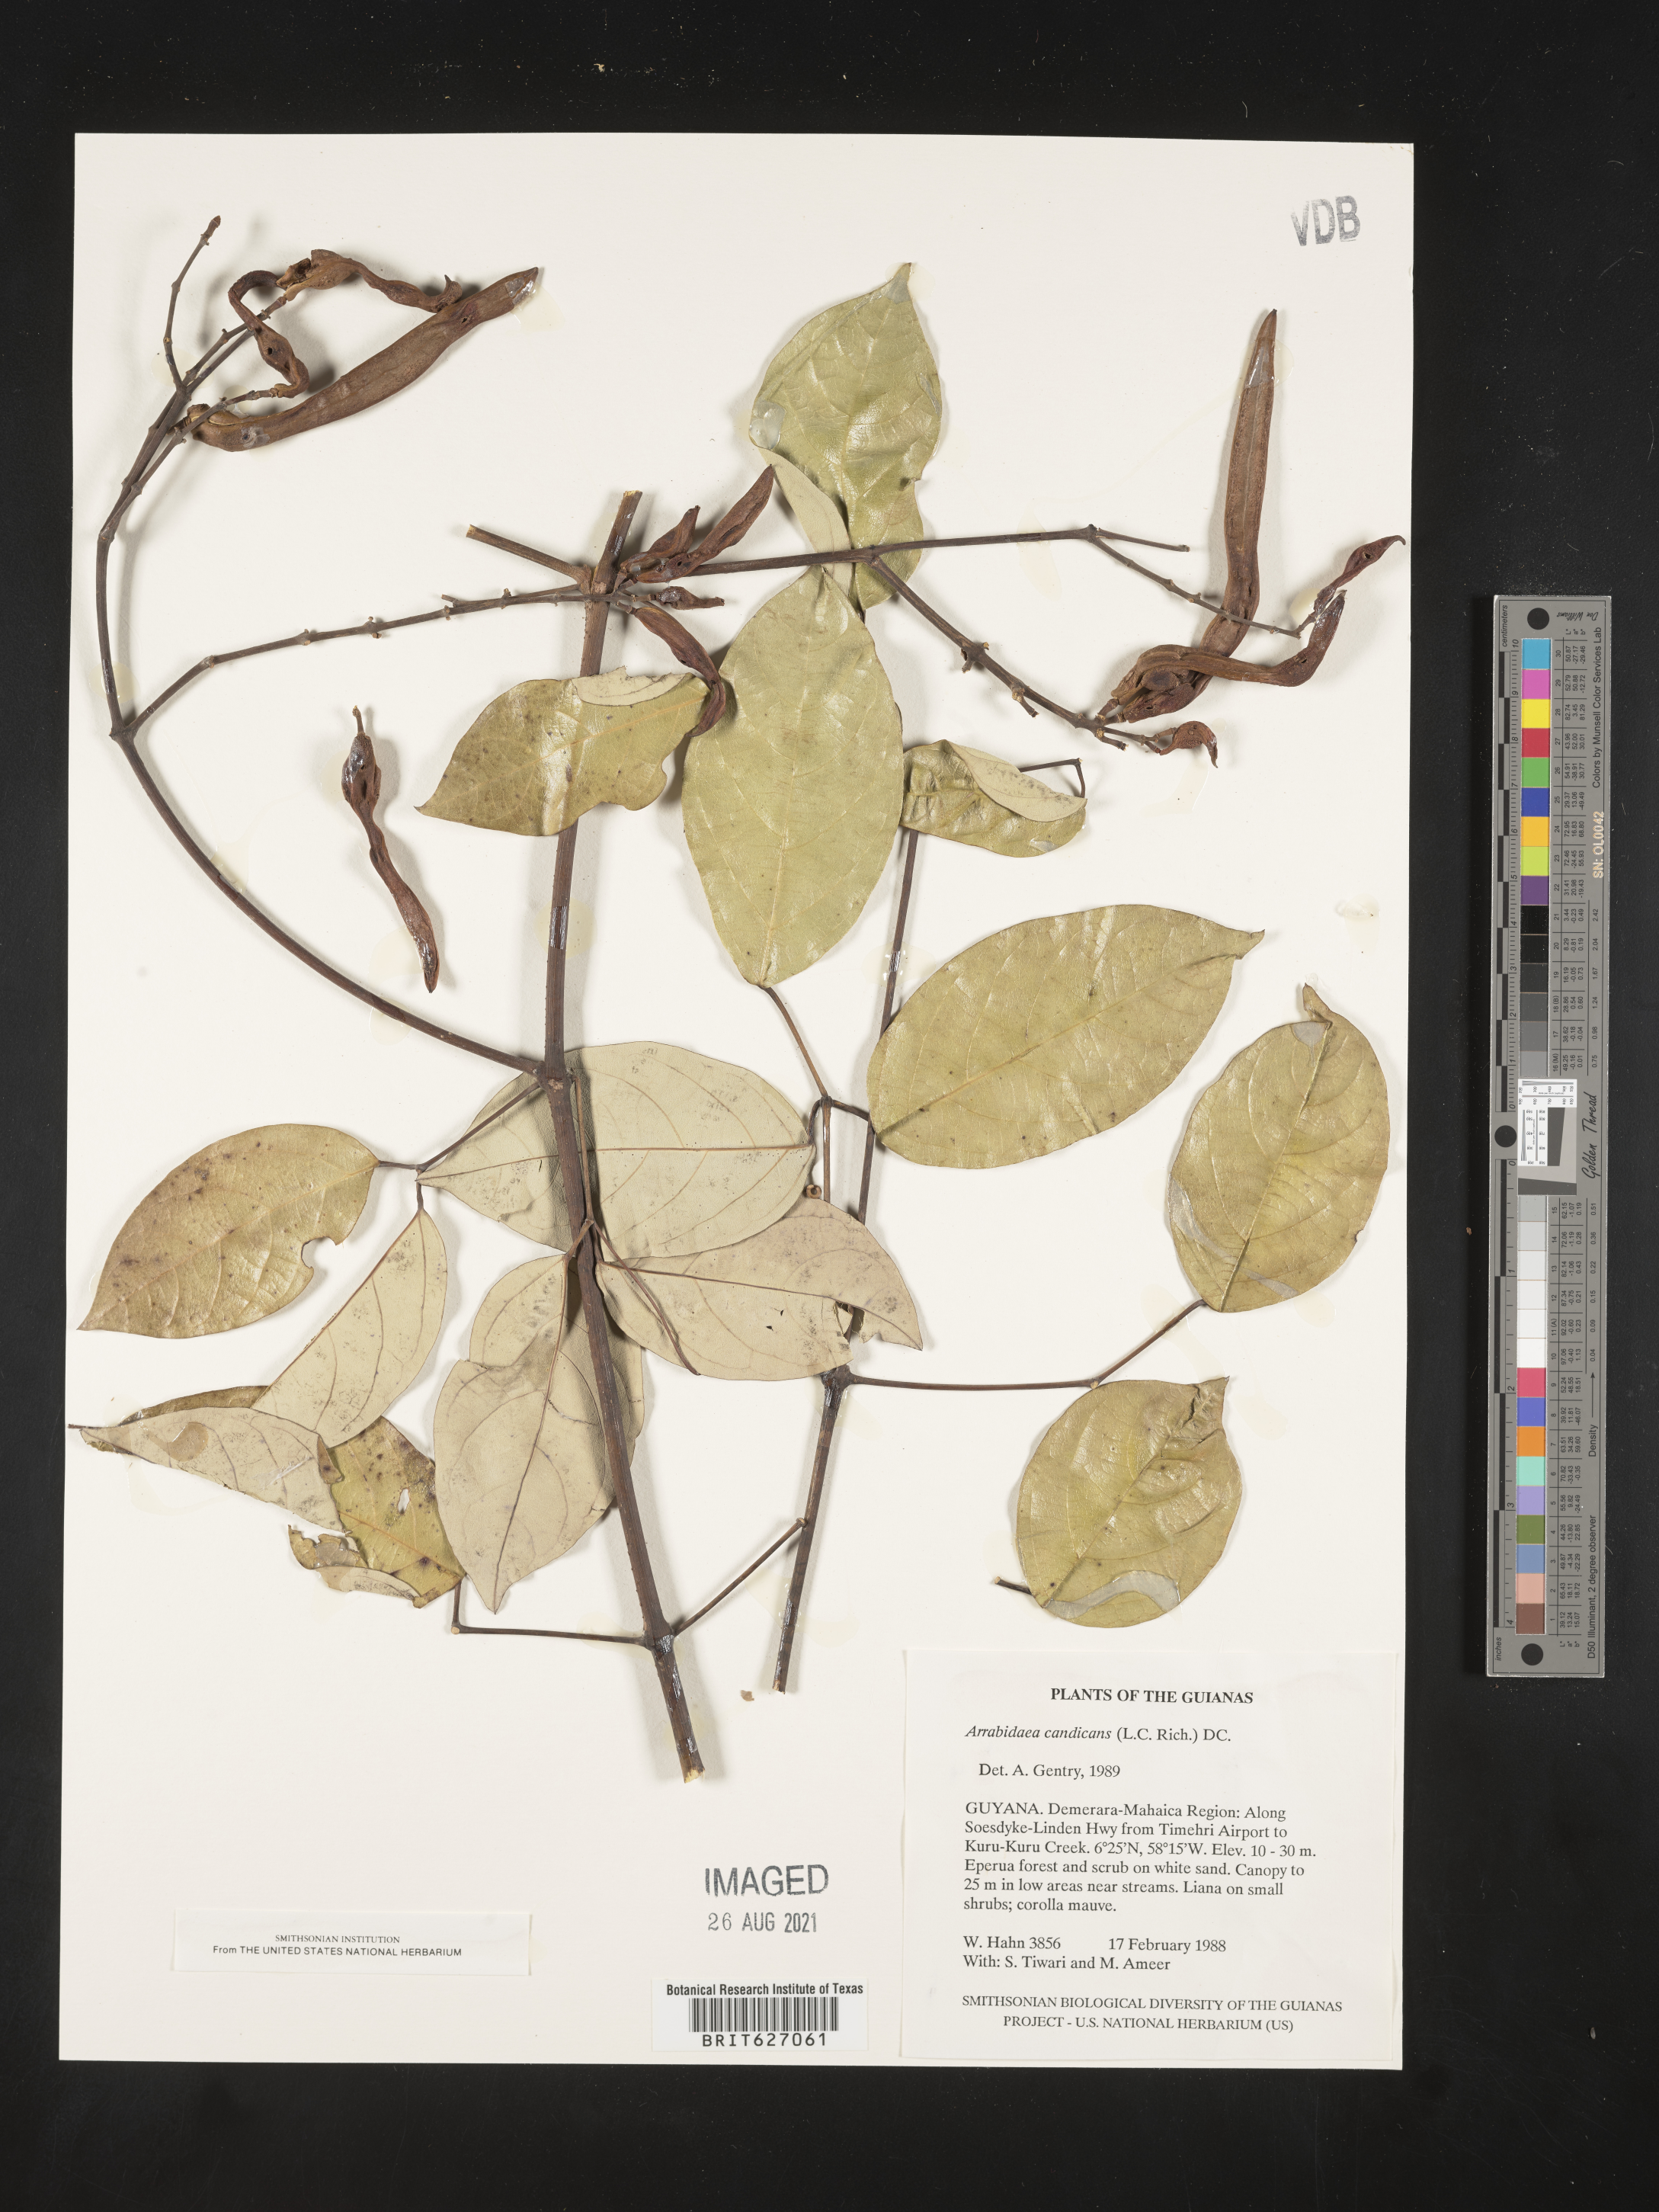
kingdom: Plantae
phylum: Tracheophyta
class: Magnoliopsida
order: Lamiales
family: Bignoniaceae
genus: Fridericia
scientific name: Fridericia candicans
